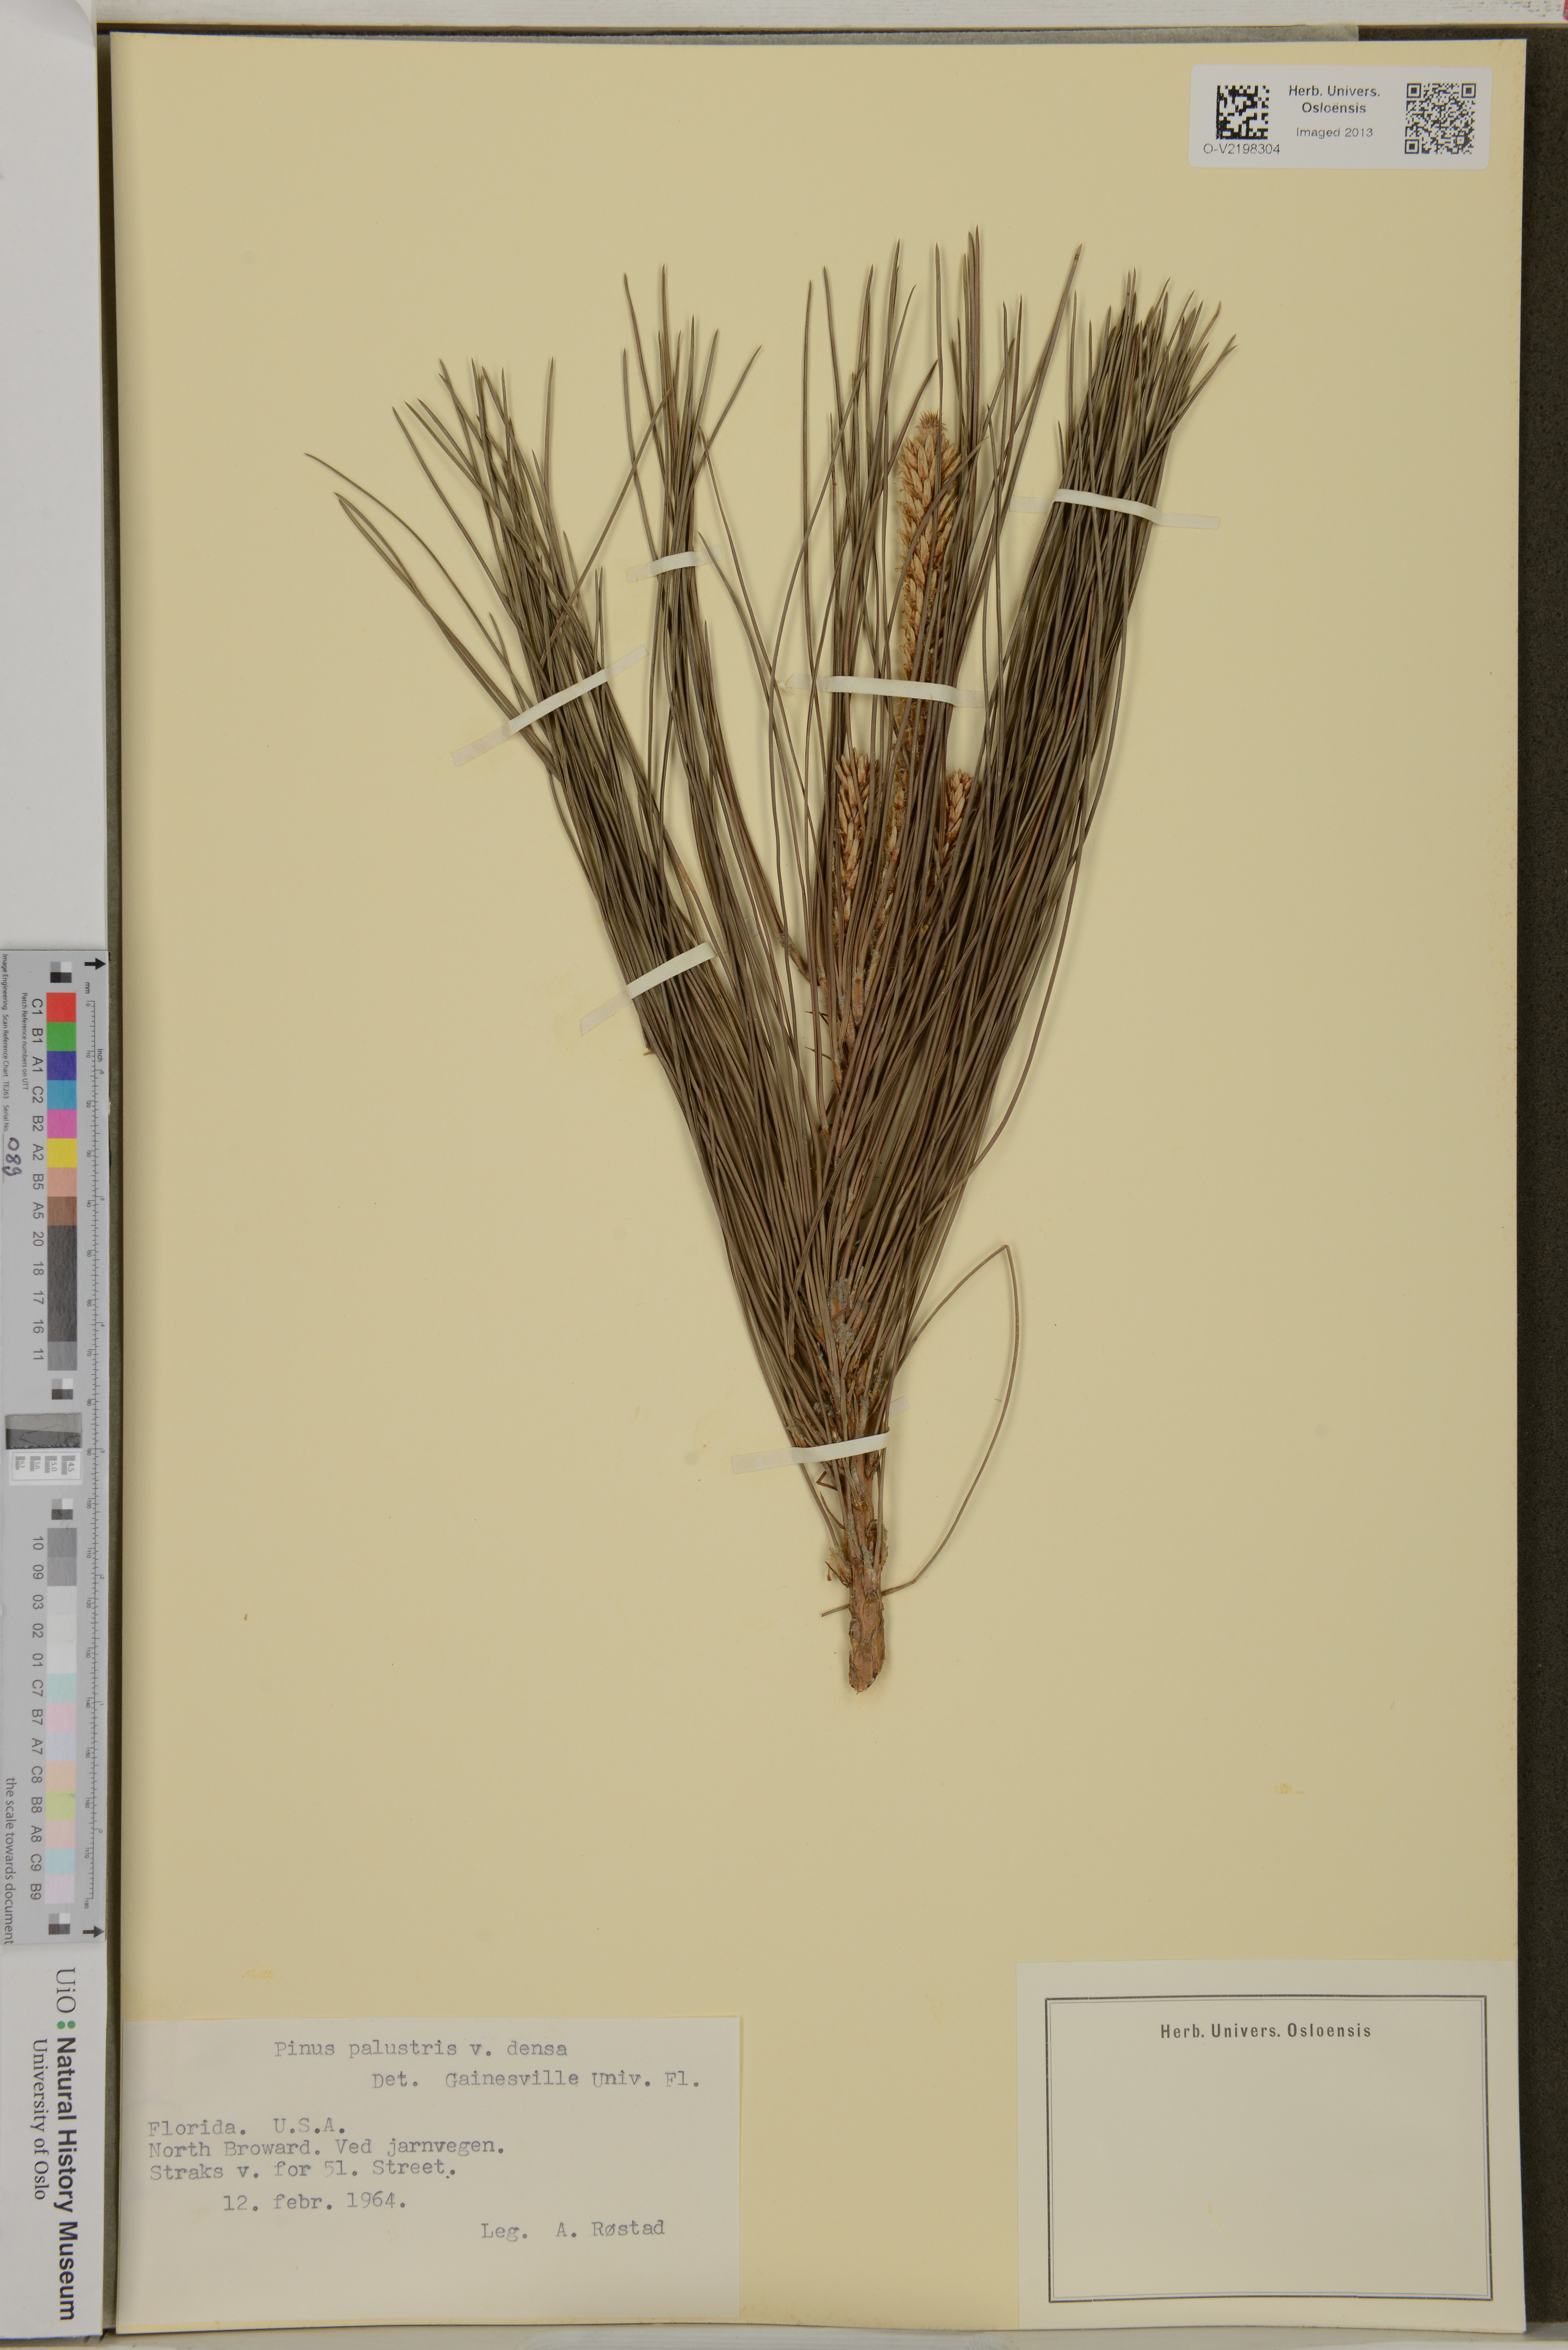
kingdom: Plantae
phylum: Tracheophyta
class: Pinopsida
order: Pinales
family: Pinaceae
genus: Pinus
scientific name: Pinus palustris
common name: Longleaf pine
